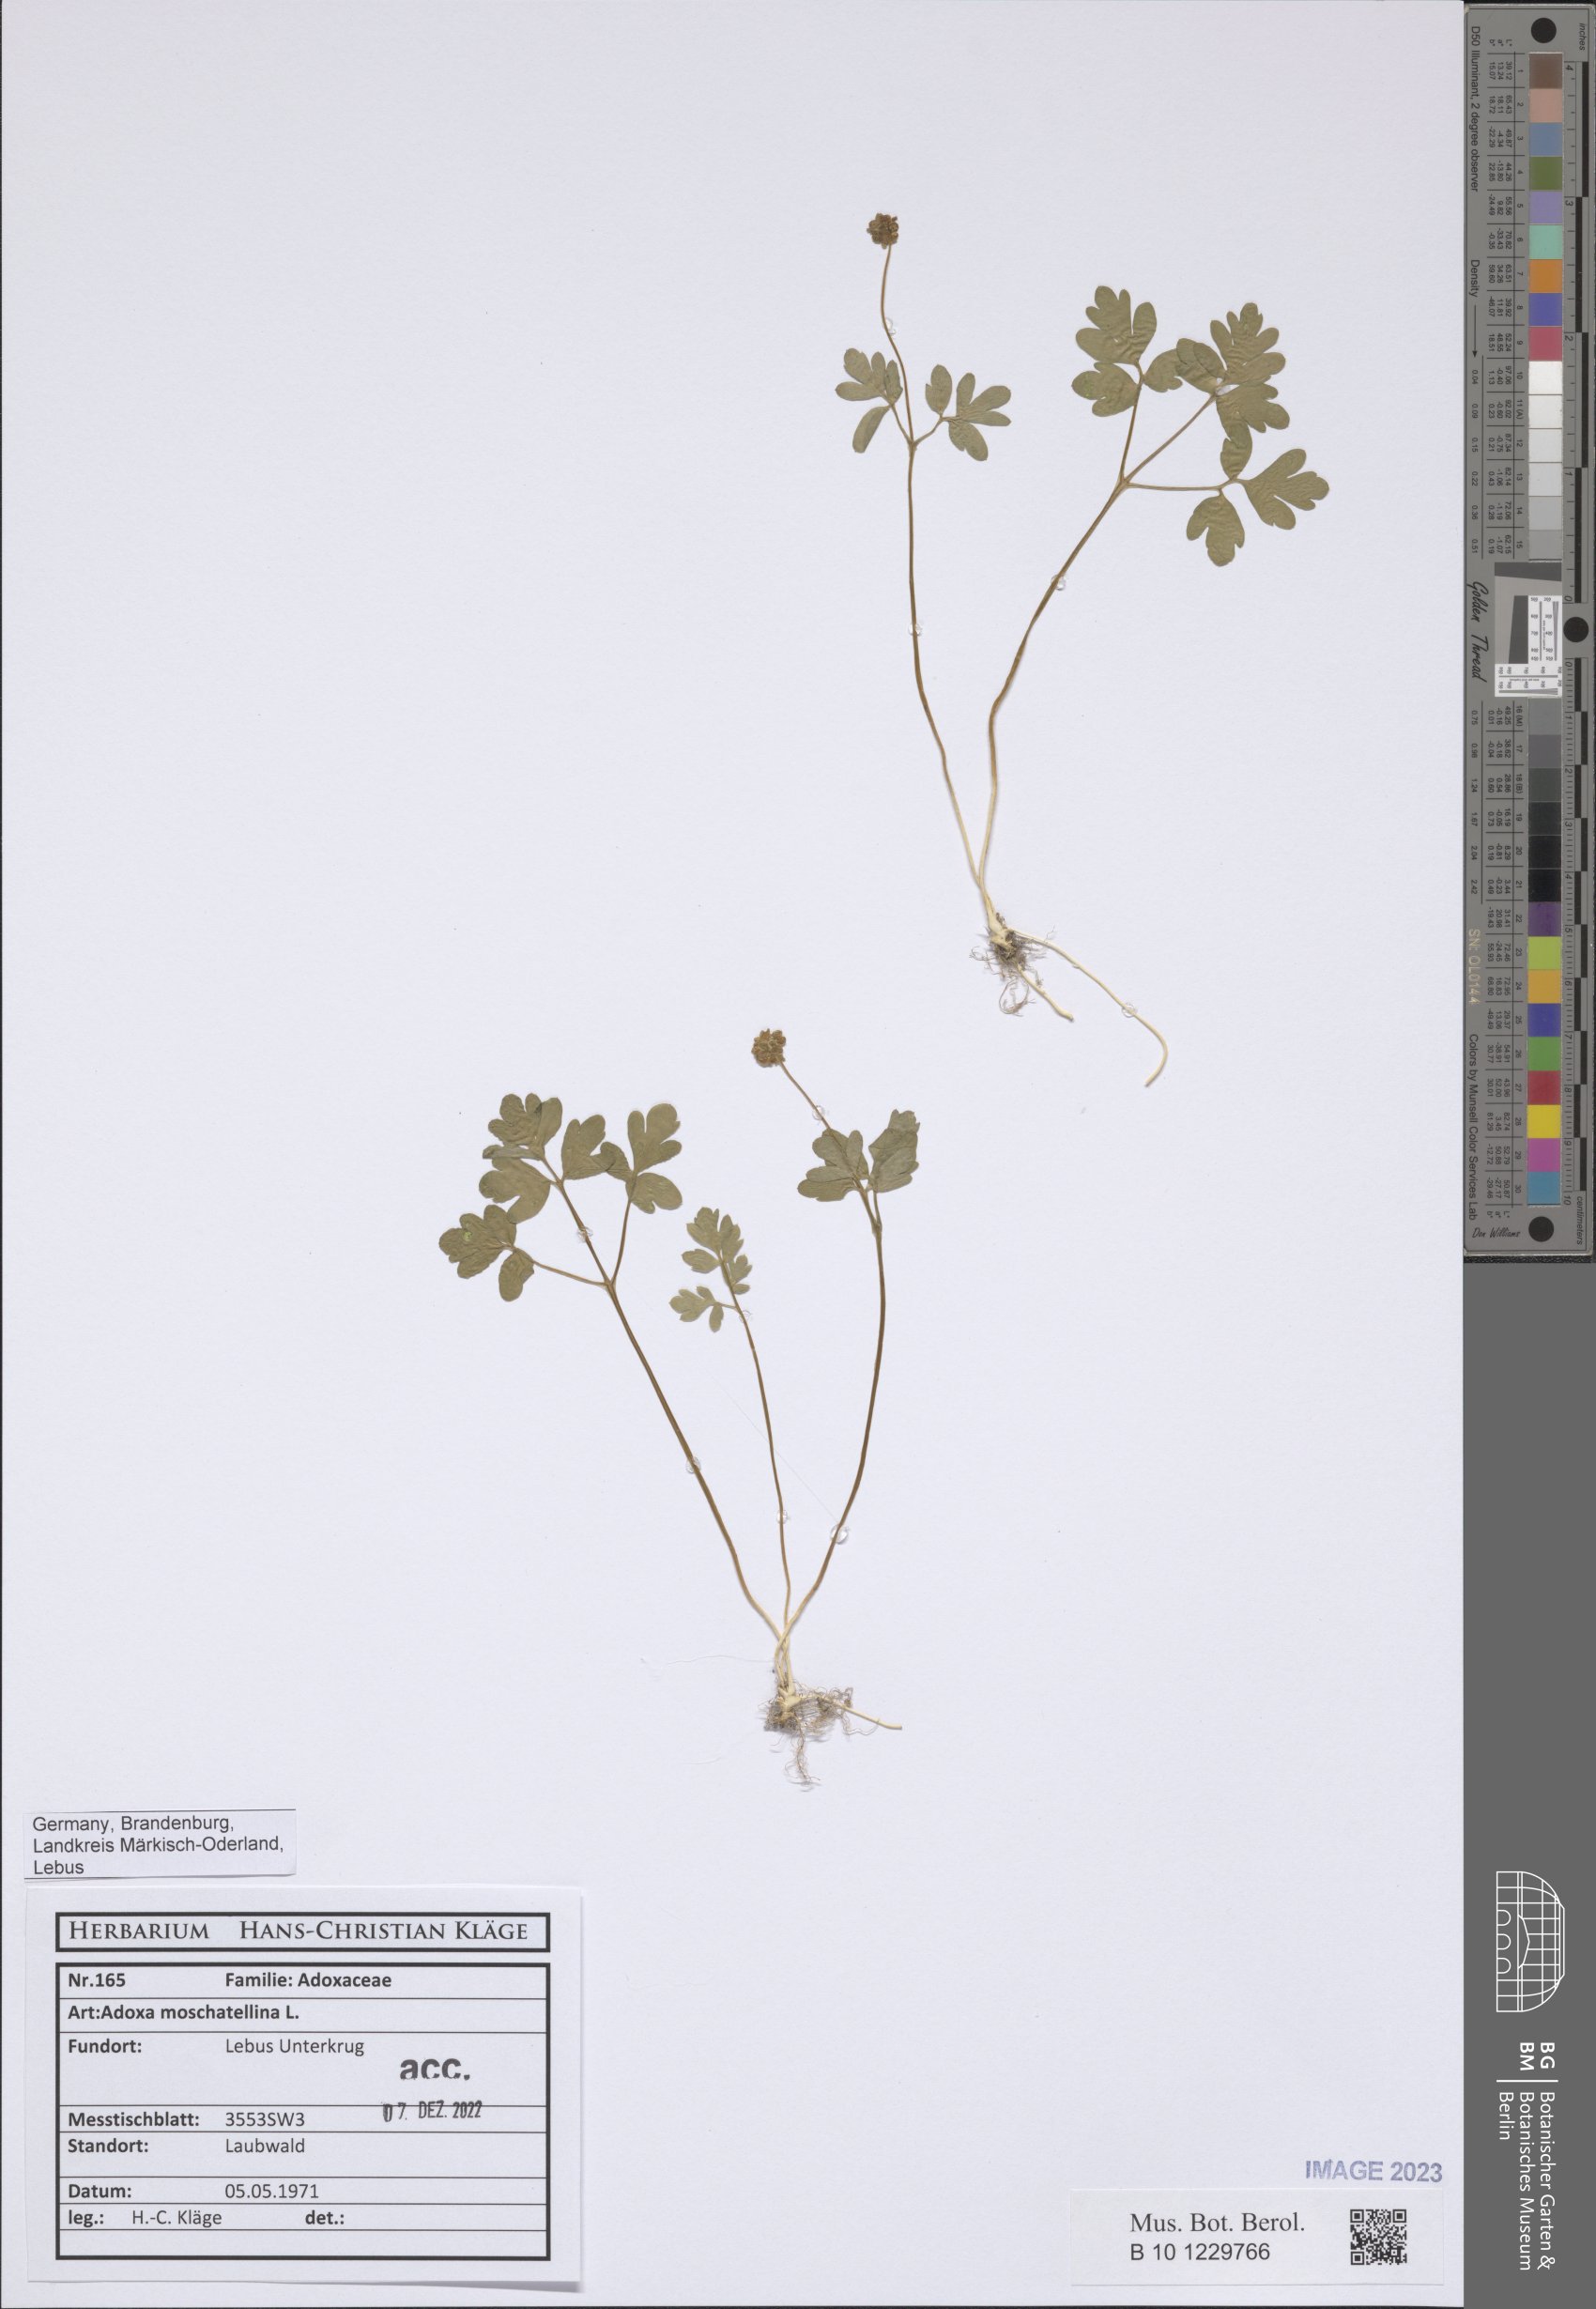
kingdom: Plantae
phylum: Tracheophyta
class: Magnoliopsida
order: Dipsacales
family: Viburnaceae
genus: Adoxa
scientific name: Adoxa moschatellina
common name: Moschatel
